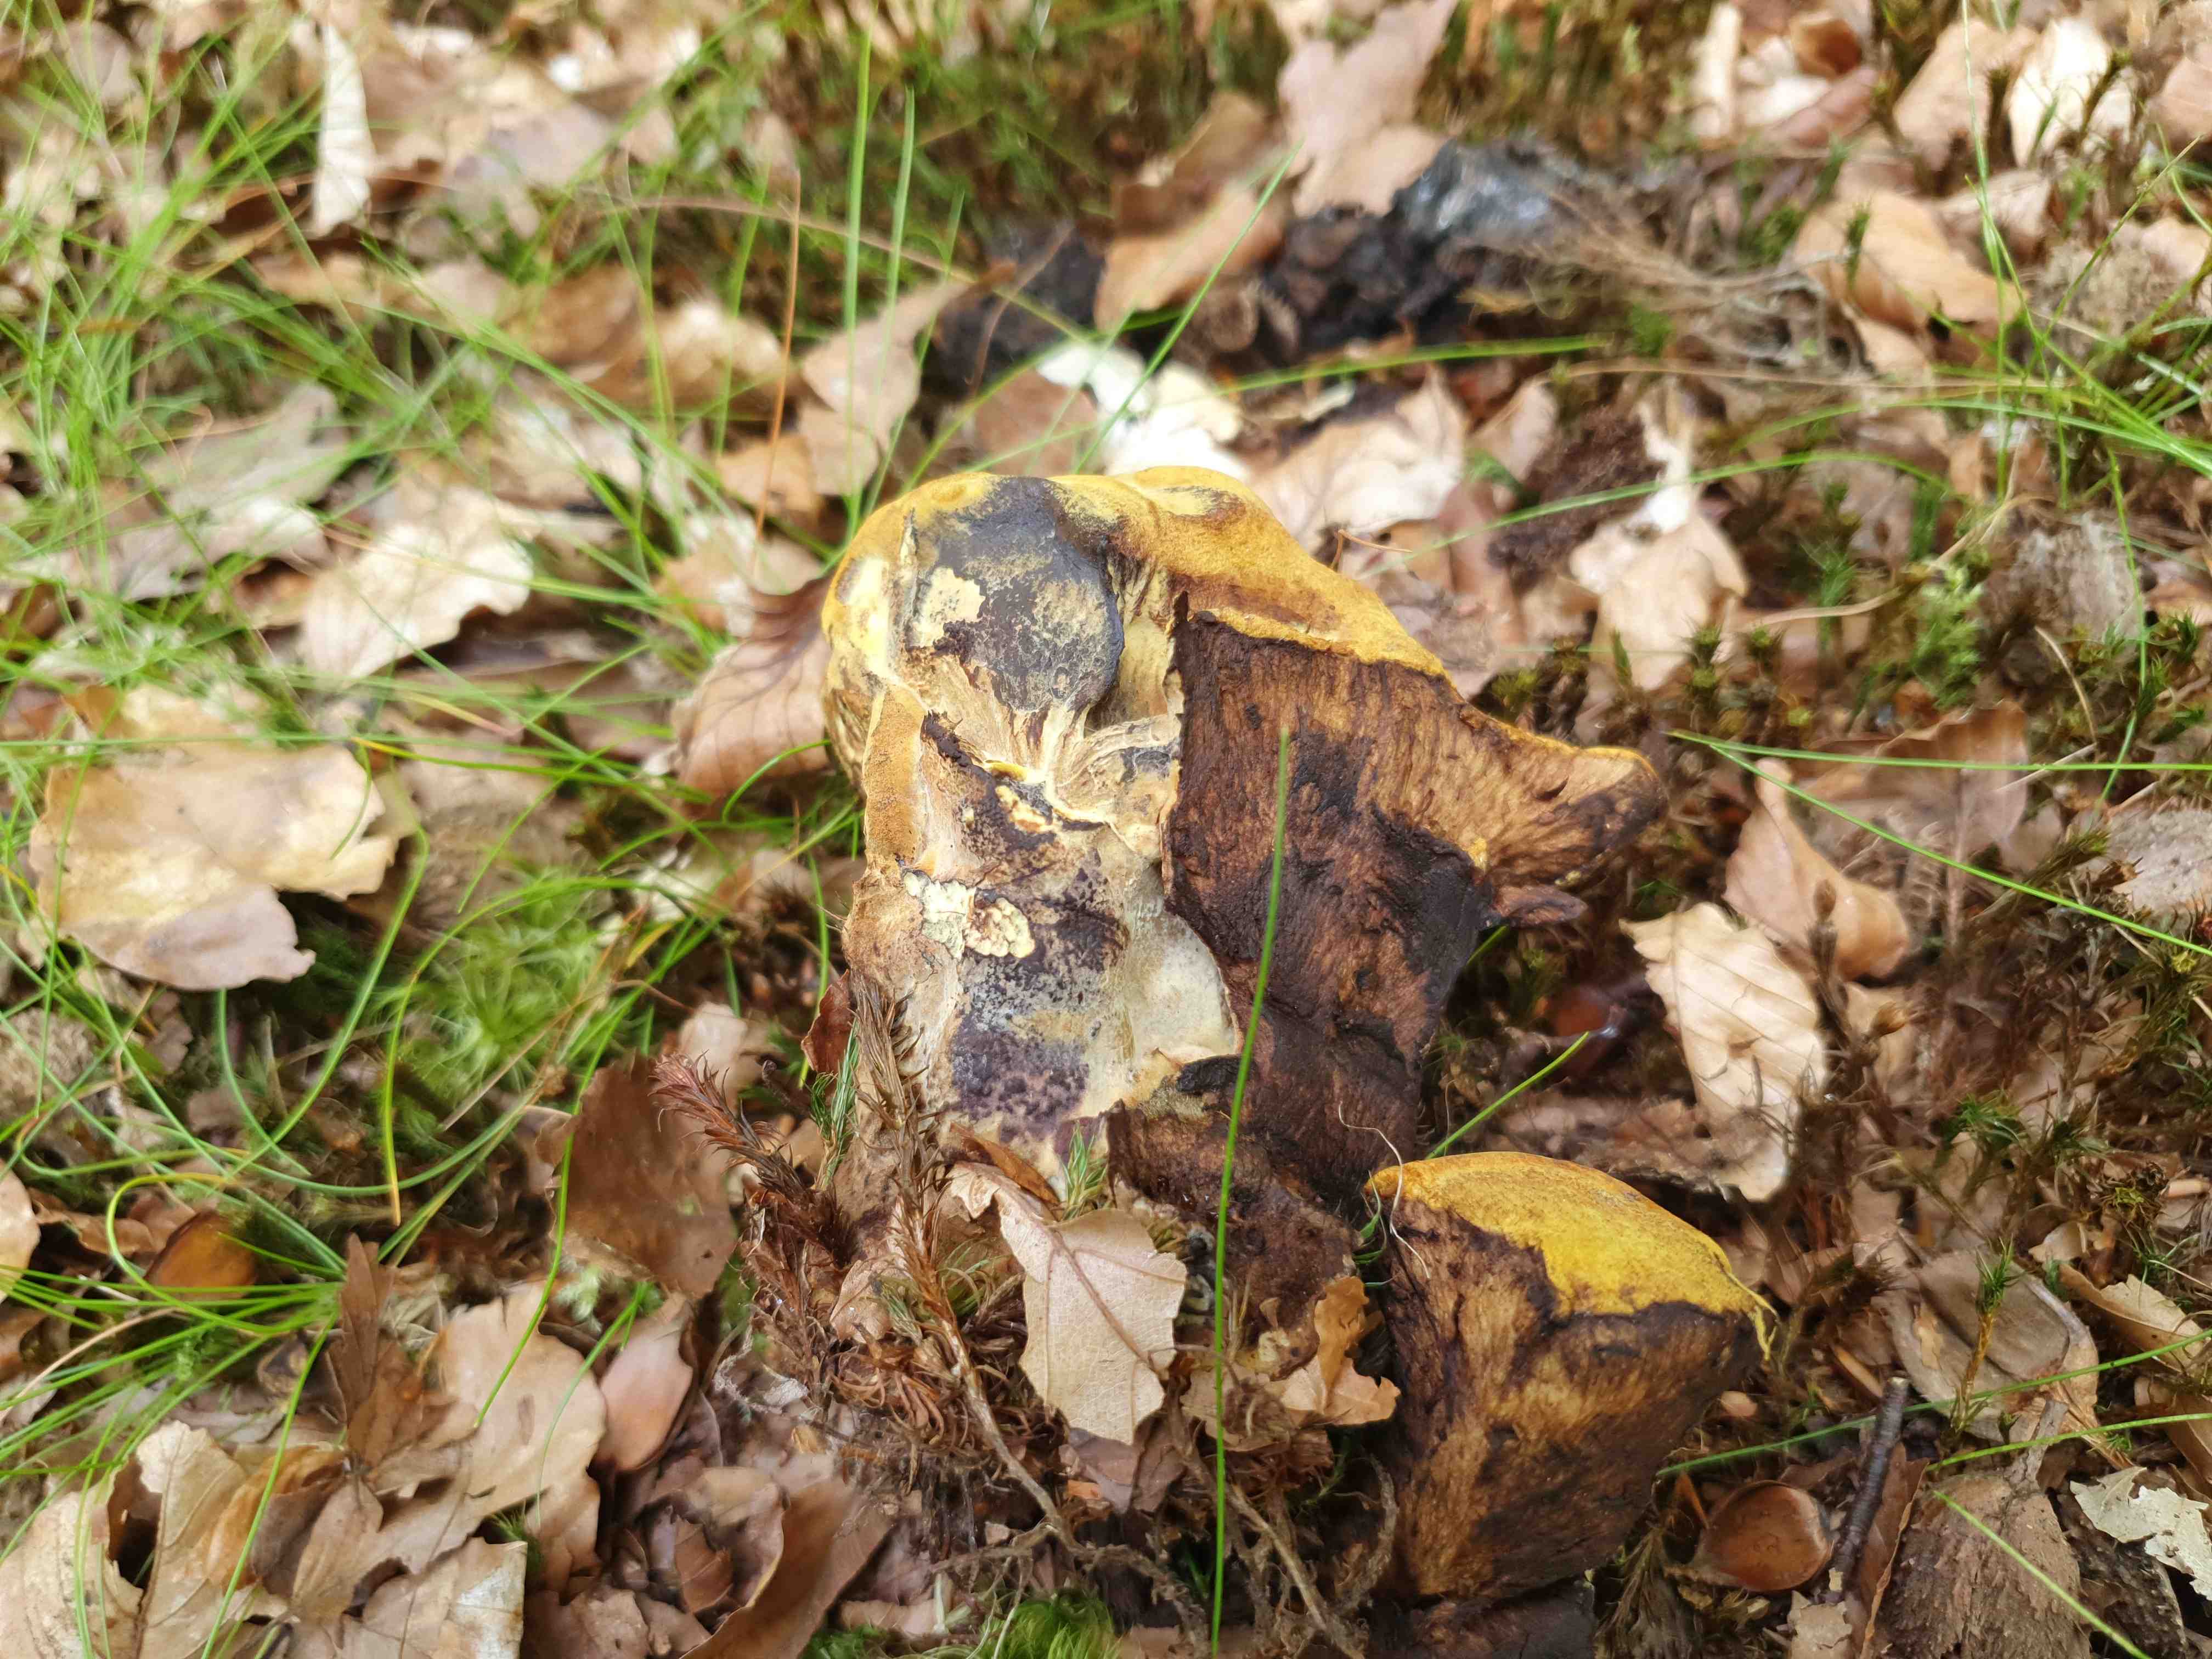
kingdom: Fungi
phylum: Basidiomycota
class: Agaricomycetes
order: Polyporales
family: Laetiporaceae
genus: Phaeolus
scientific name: Phaeolus schweinitzii
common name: brunporesvamp
